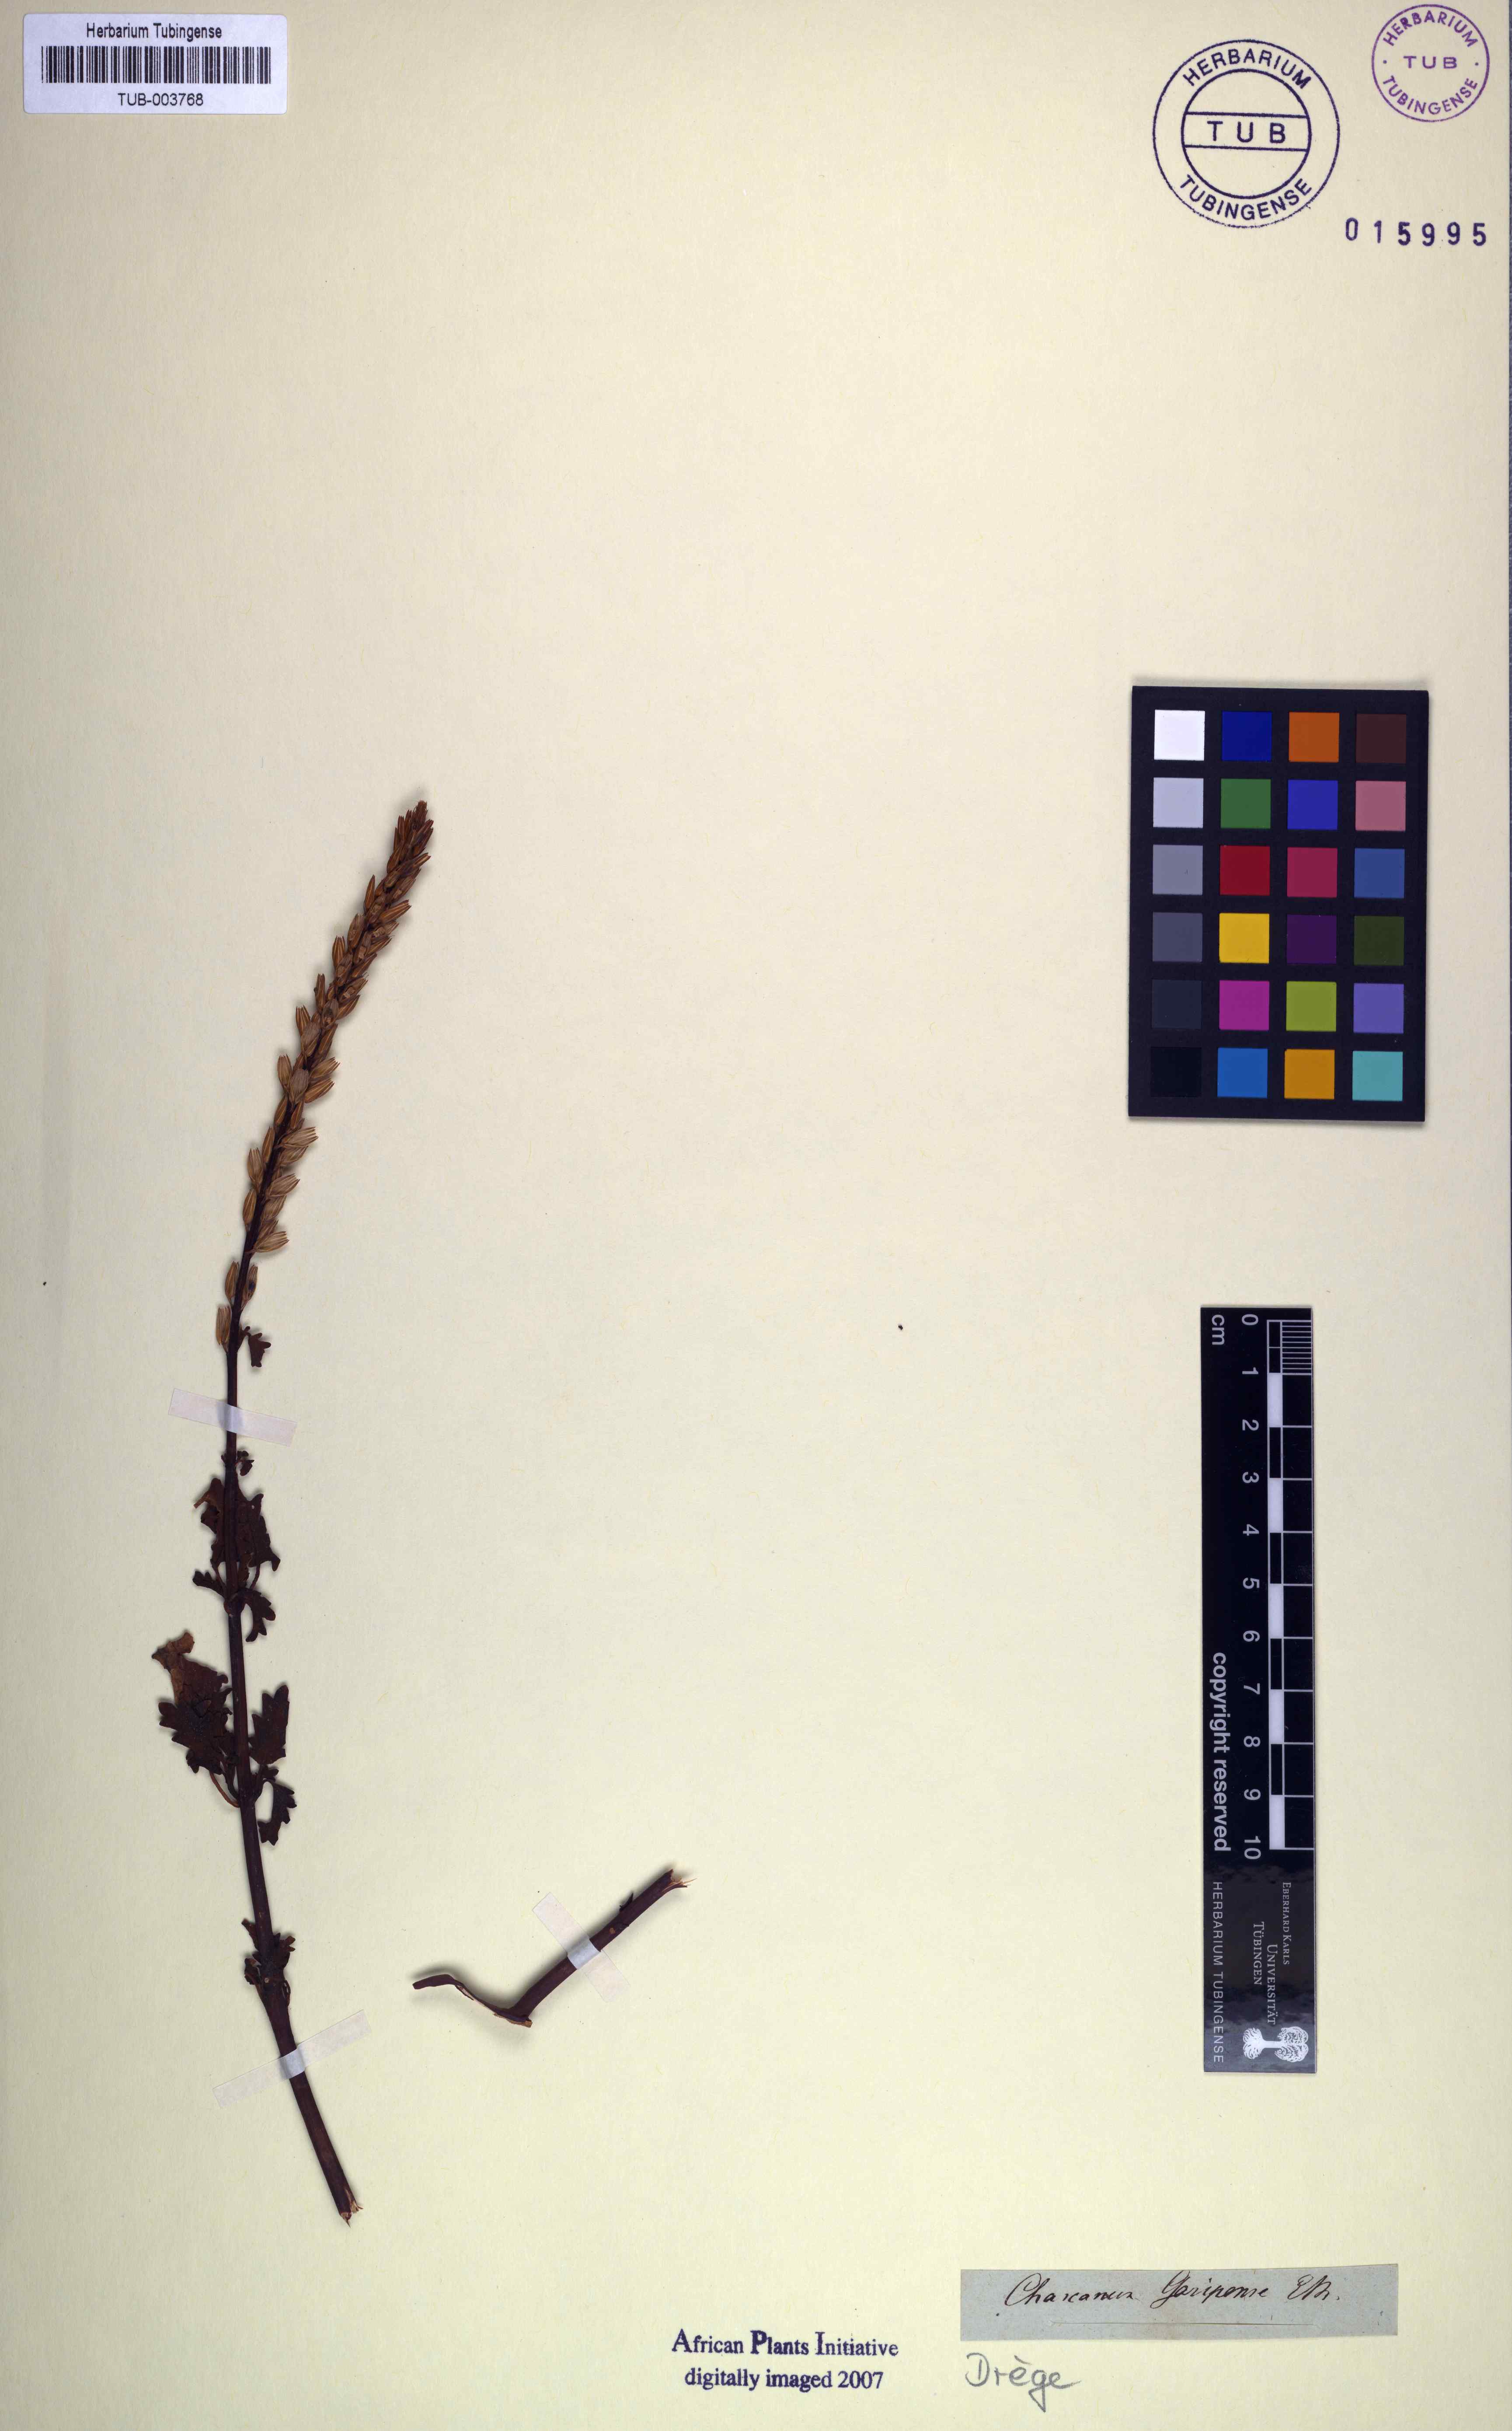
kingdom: Plantae
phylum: Tracheophyta
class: Magnoliopsida
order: Lamiales
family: Verbenaceae
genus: Chascanum
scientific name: Chascanum garipense
